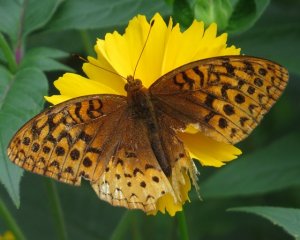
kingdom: Animalia
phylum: Arthropoda
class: Insecta
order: Lepidoptera
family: Nymphalidae
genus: Speyeria
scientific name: Speyeria cybele
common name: Great Spangled Fritillary
